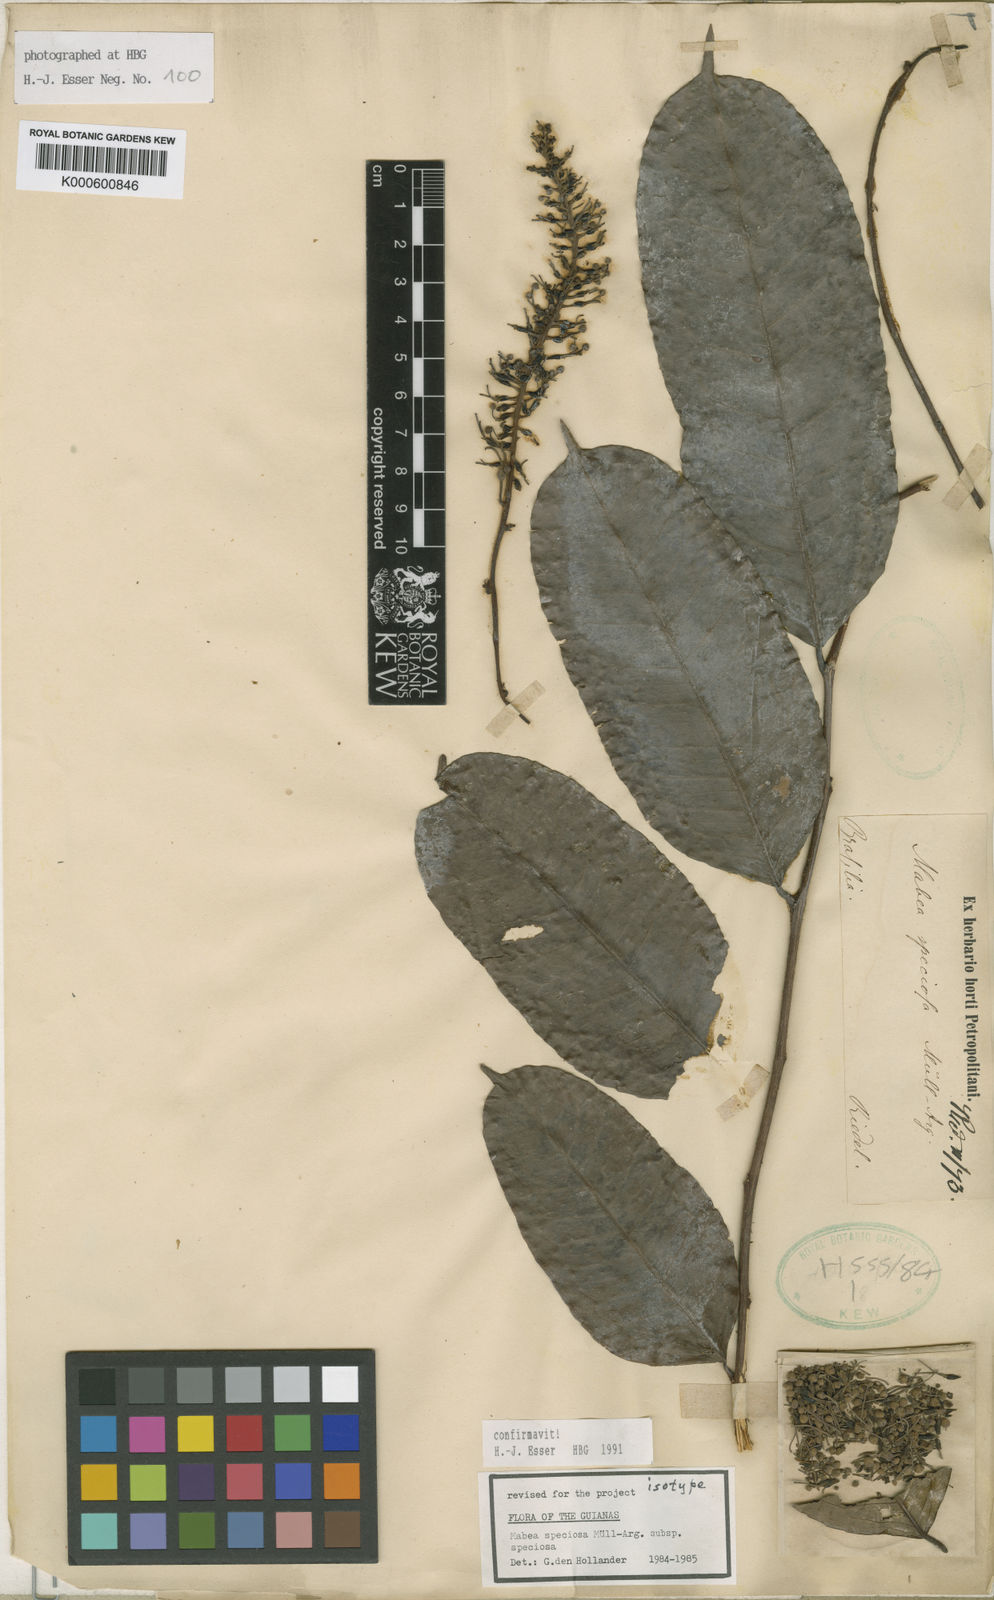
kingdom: Plantae
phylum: Tracheophyta
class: Magnoliopsida
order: Malpighiales
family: Euphorbiaceae
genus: Mabea
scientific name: Mabea
